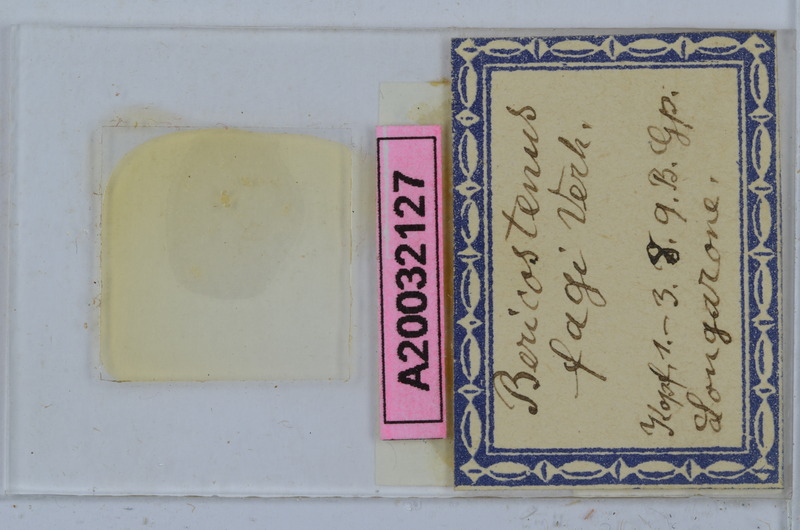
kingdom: Animalia
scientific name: Animalia
